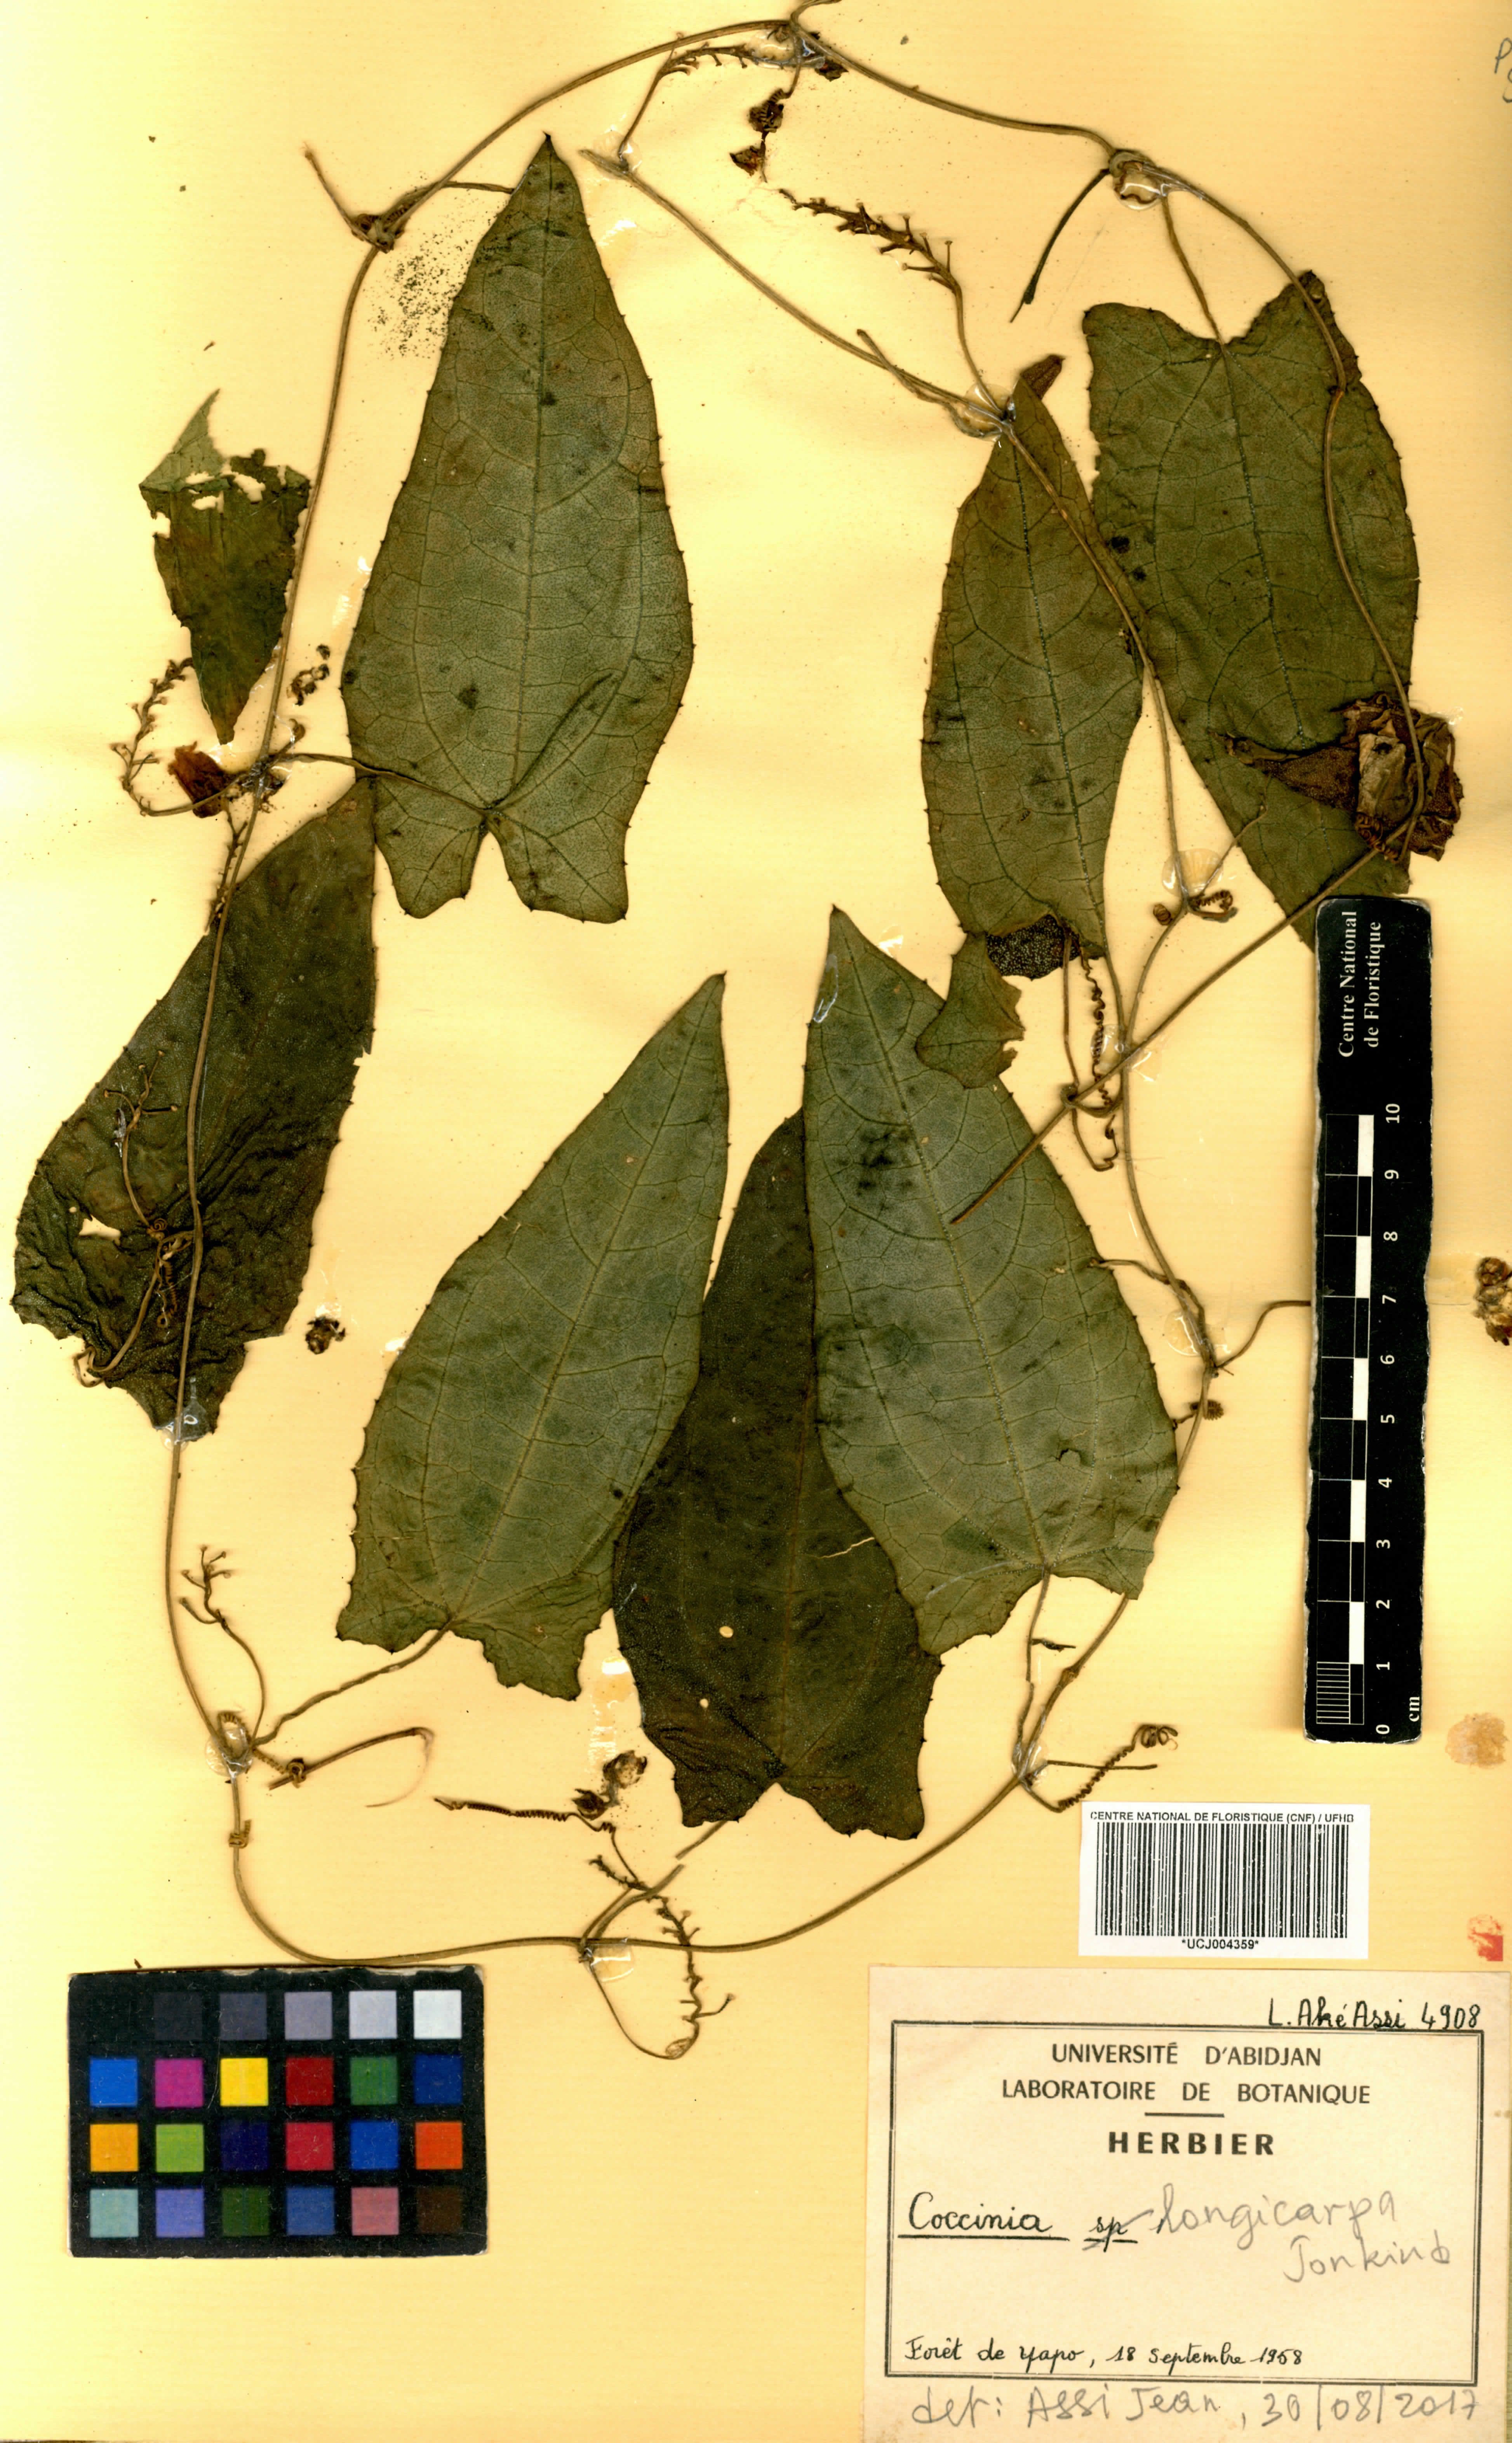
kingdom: Plantae
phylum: Tracheophyta
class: Magnoliopsida
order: Cucurbitales
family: Cucurbitaceae
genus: Coccinia
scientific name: Coccinia longicarpa
